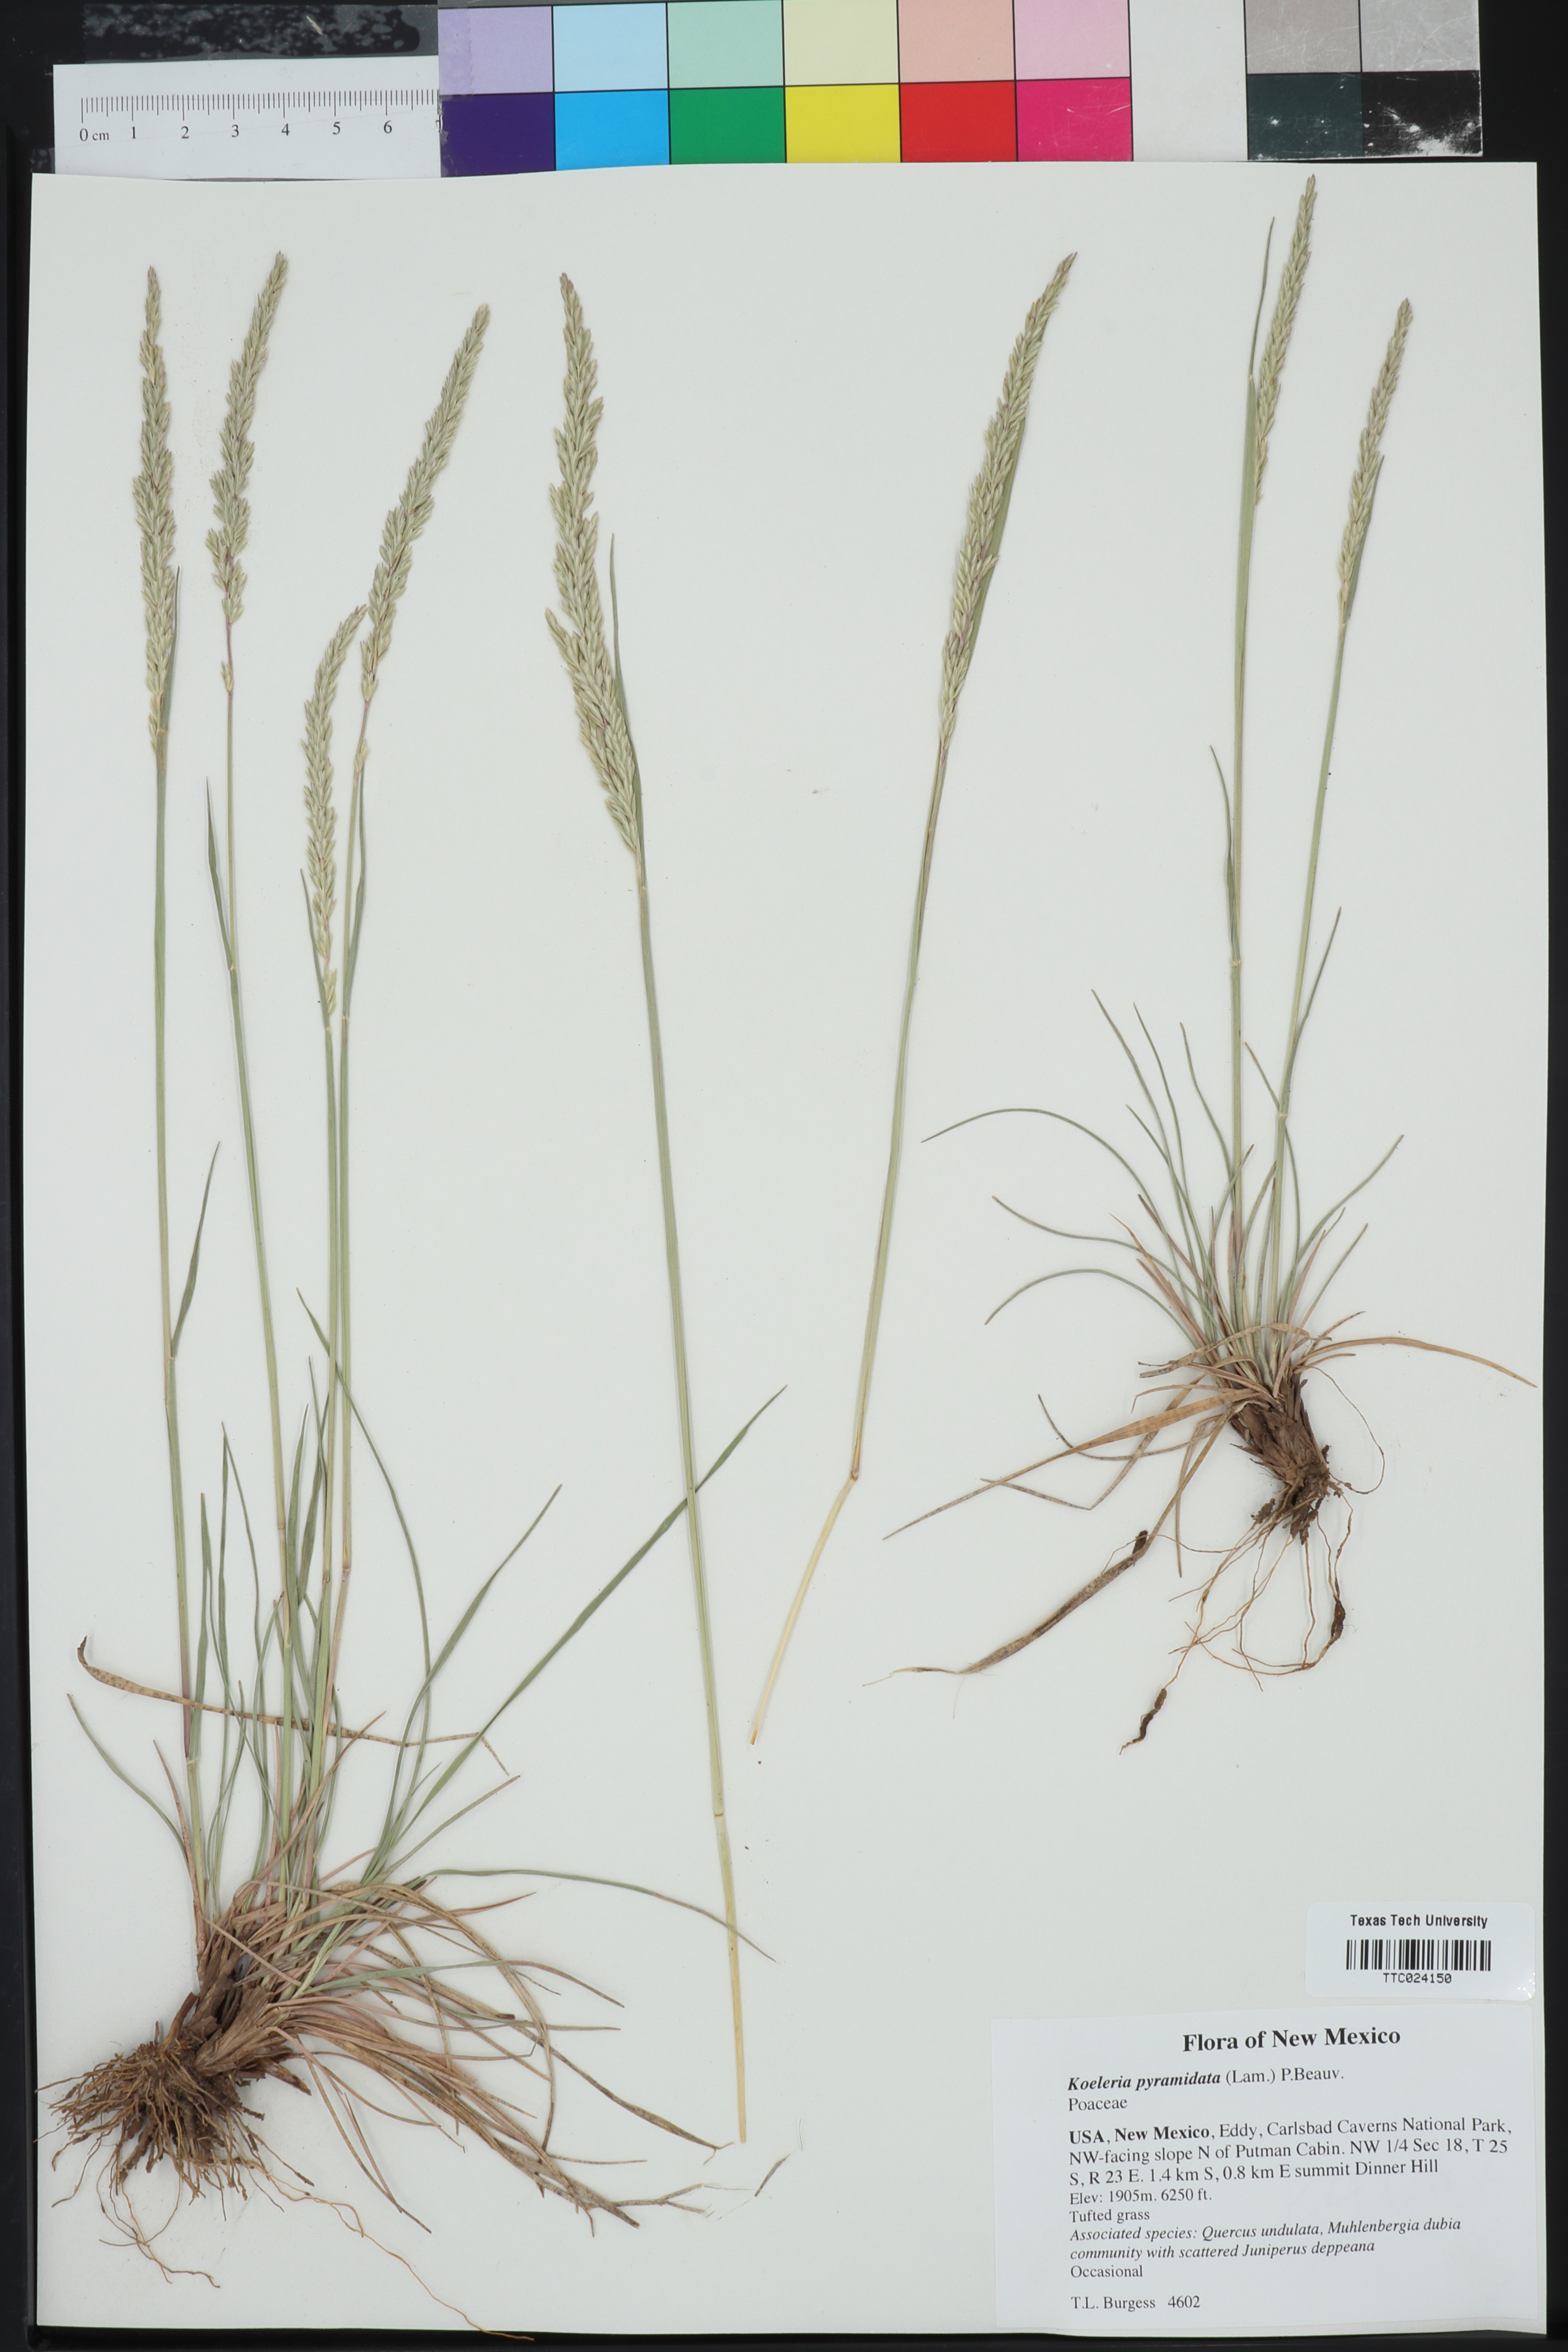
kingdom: Plantae
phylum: Tracheophyta
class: Liliopsida
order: Poales
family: Poaceae
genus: Koeleria
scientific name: Koeleria pyramidata
